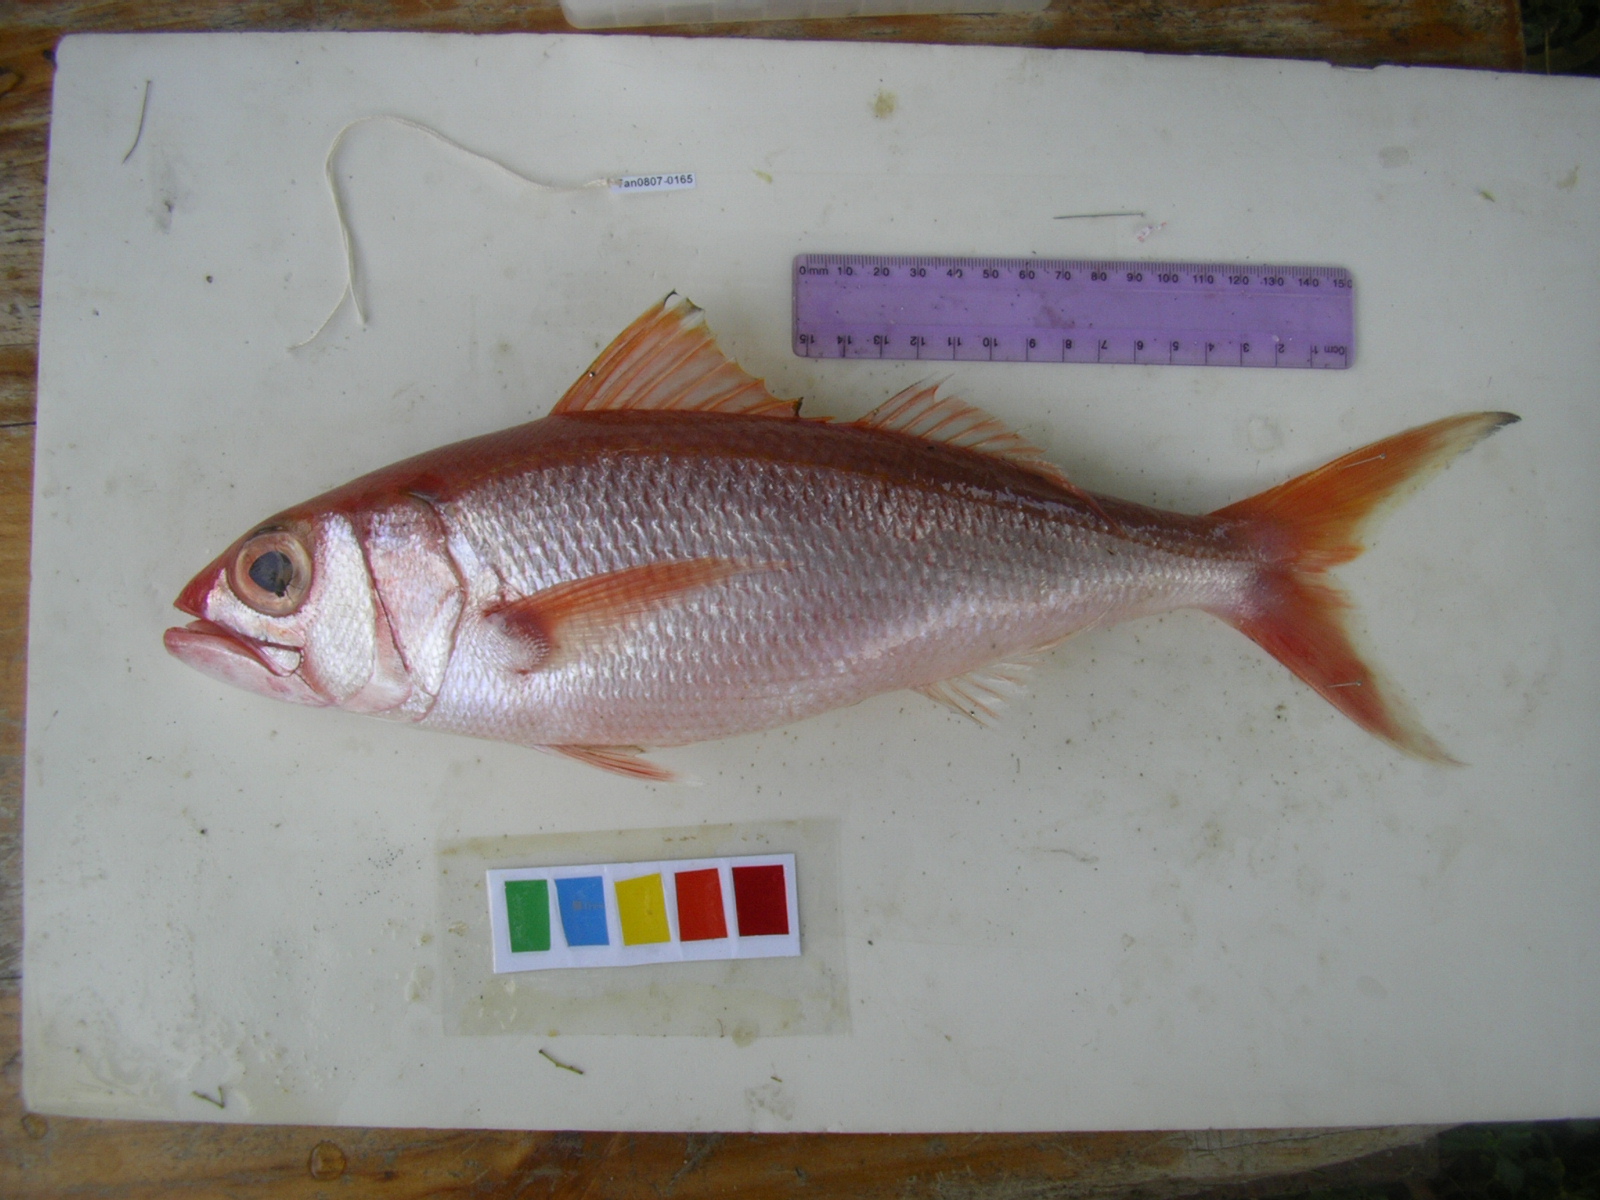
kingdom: Animalia
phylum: Chordata
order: Perciformes
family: Lutjanidae
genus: Aphareus
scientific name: Aphareus rutilans
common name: Rusty jobfish
